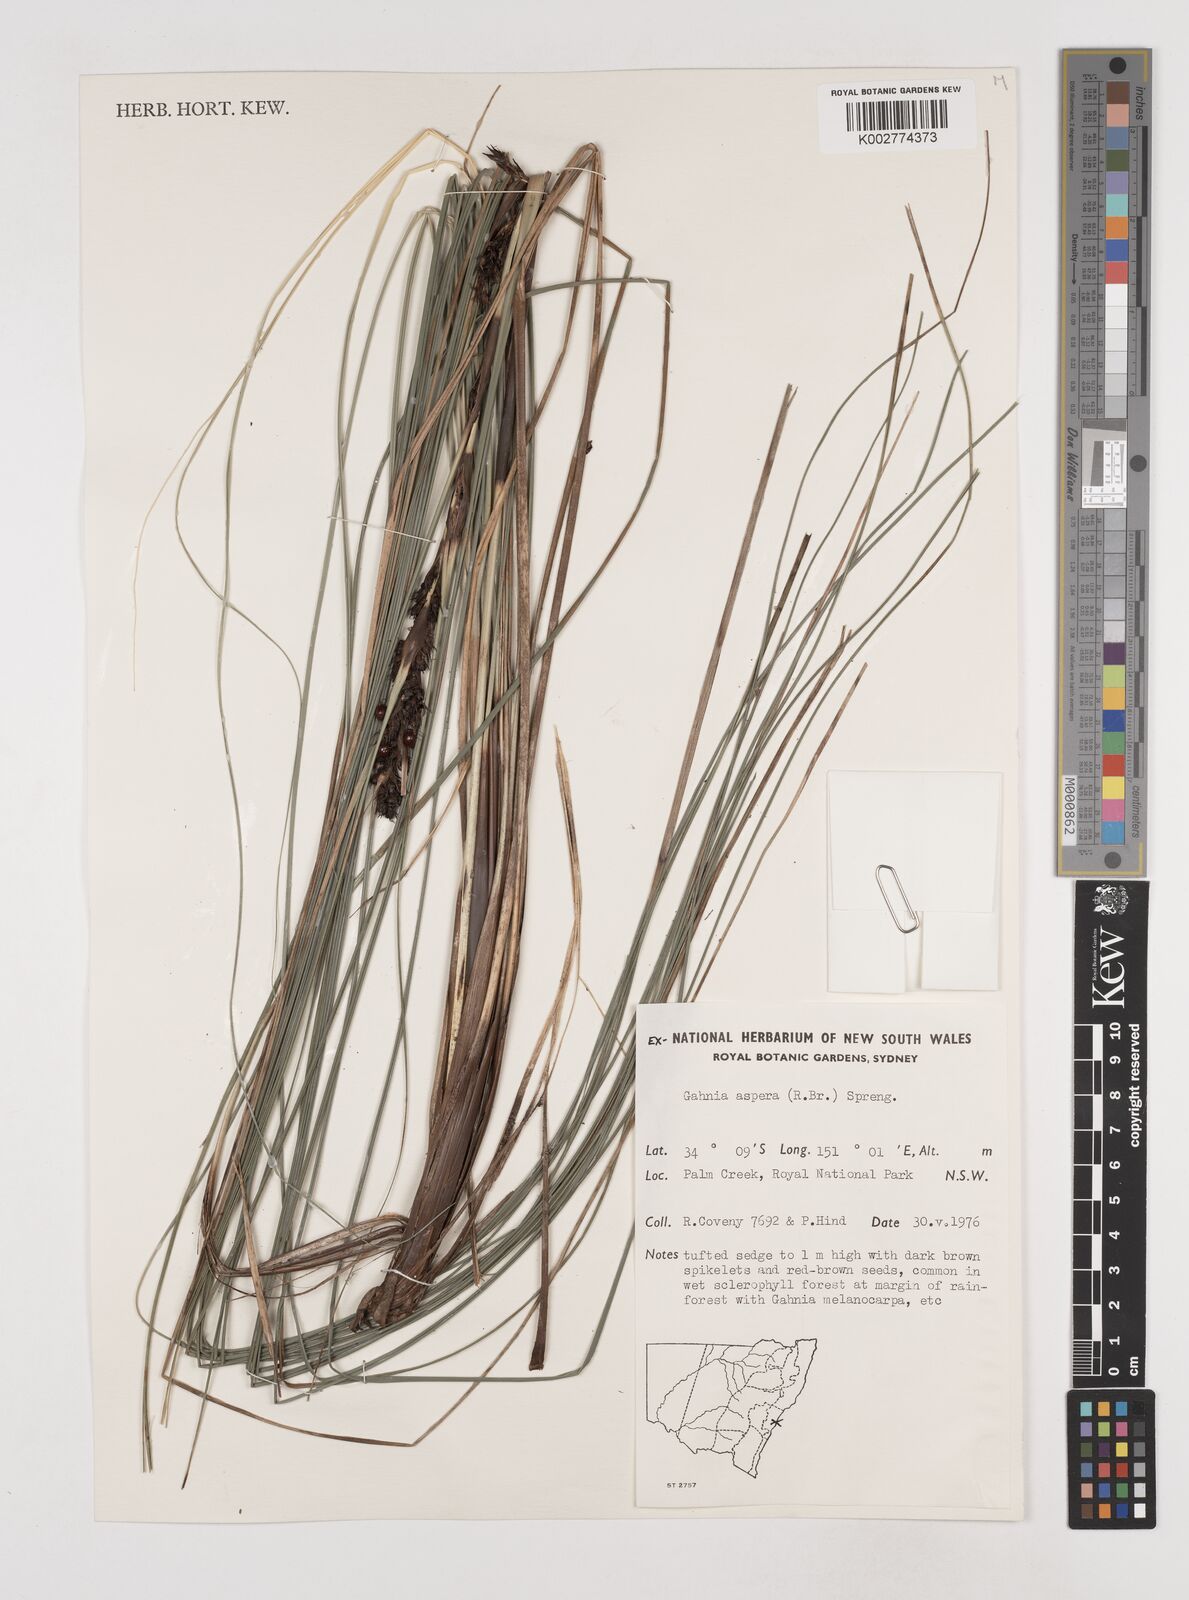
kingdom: Plantae
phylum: Tracheophyta
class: Liliopsida
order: Poales
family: Cyperaceae
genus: Gahnia
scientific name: Gahnia aspera
